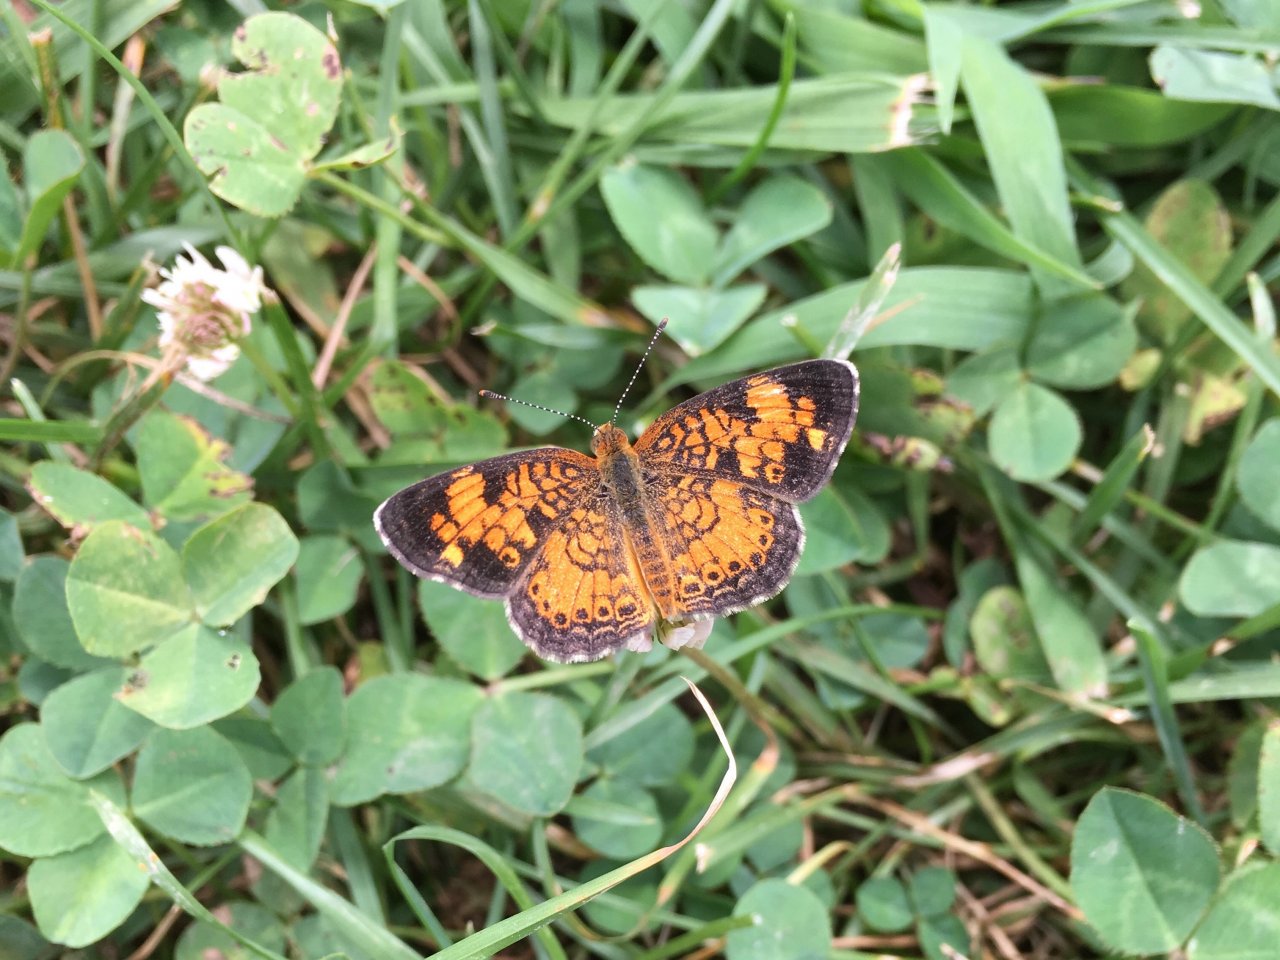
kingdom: Animalia
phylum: Arthropoda
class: Insecta
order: Lepidoptera
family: Nymphalidae
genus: Phyciodes
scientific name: Phyciodes tharos
